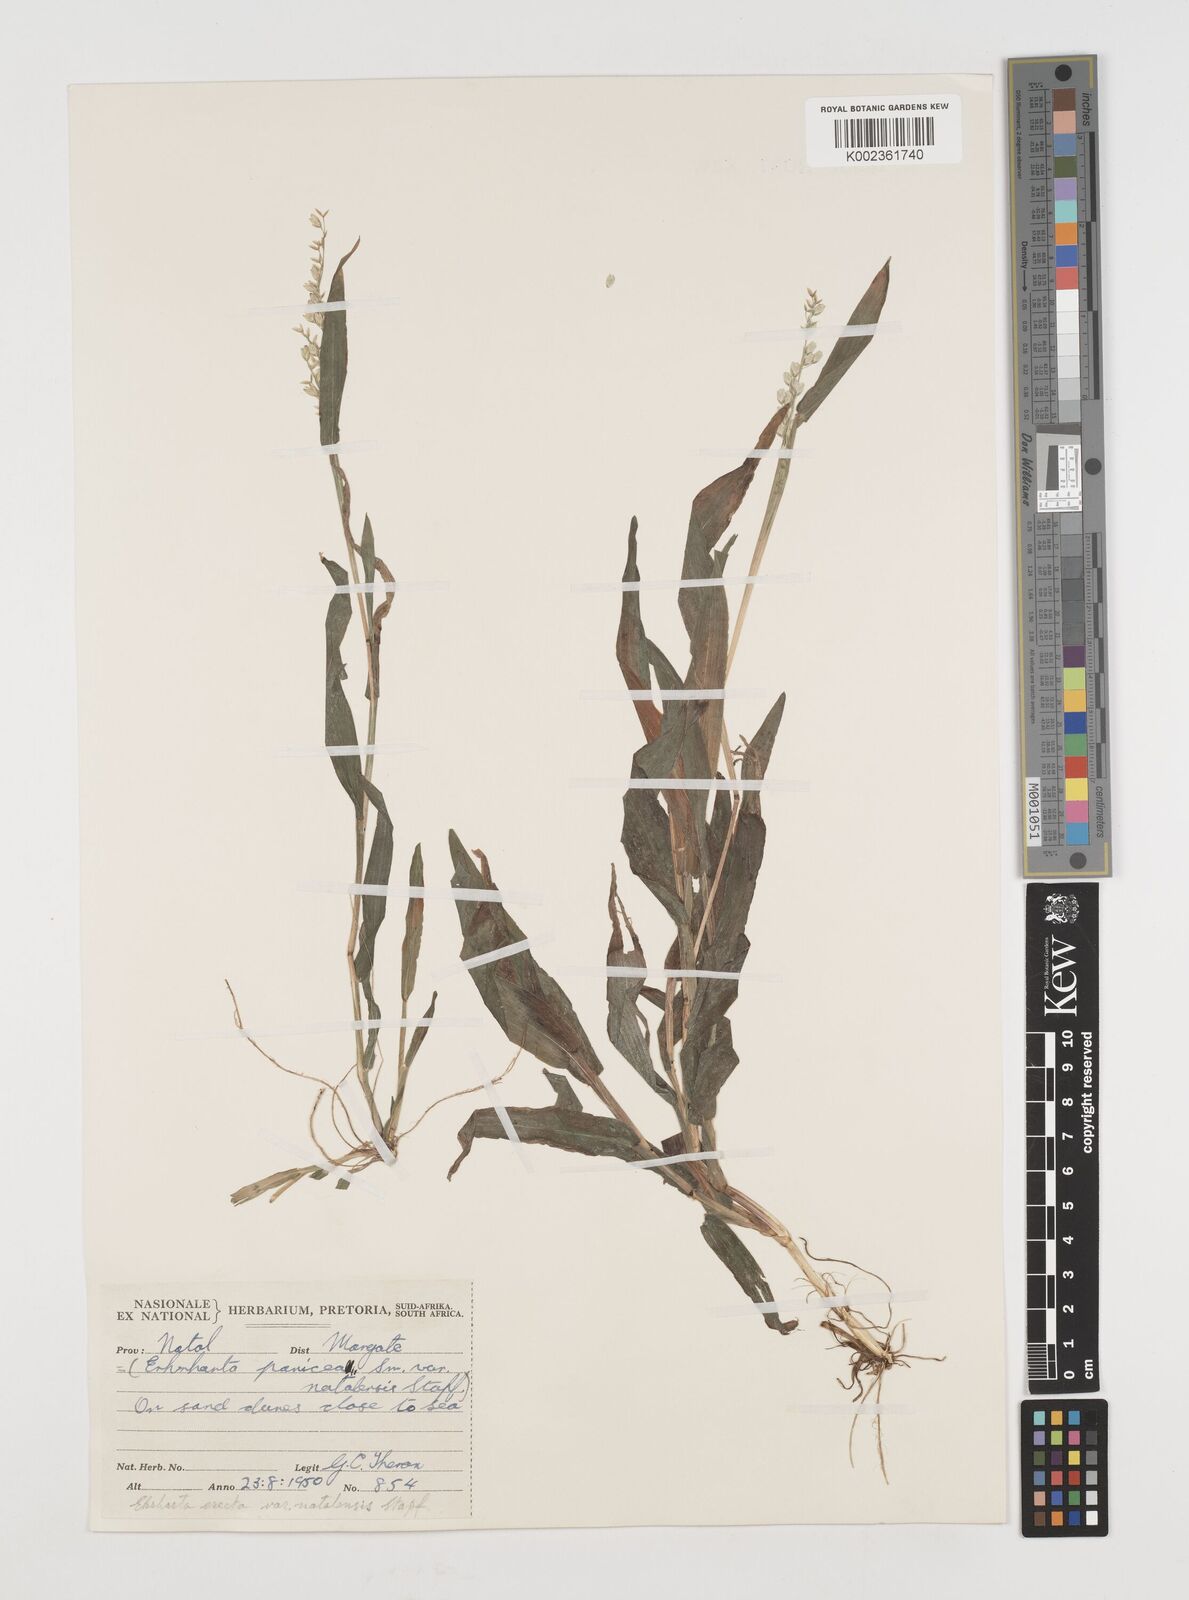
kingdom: Plantae
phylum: Tracheophyta
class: Liliopsida
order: Poales
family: Poaceae
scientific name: Poaceae
